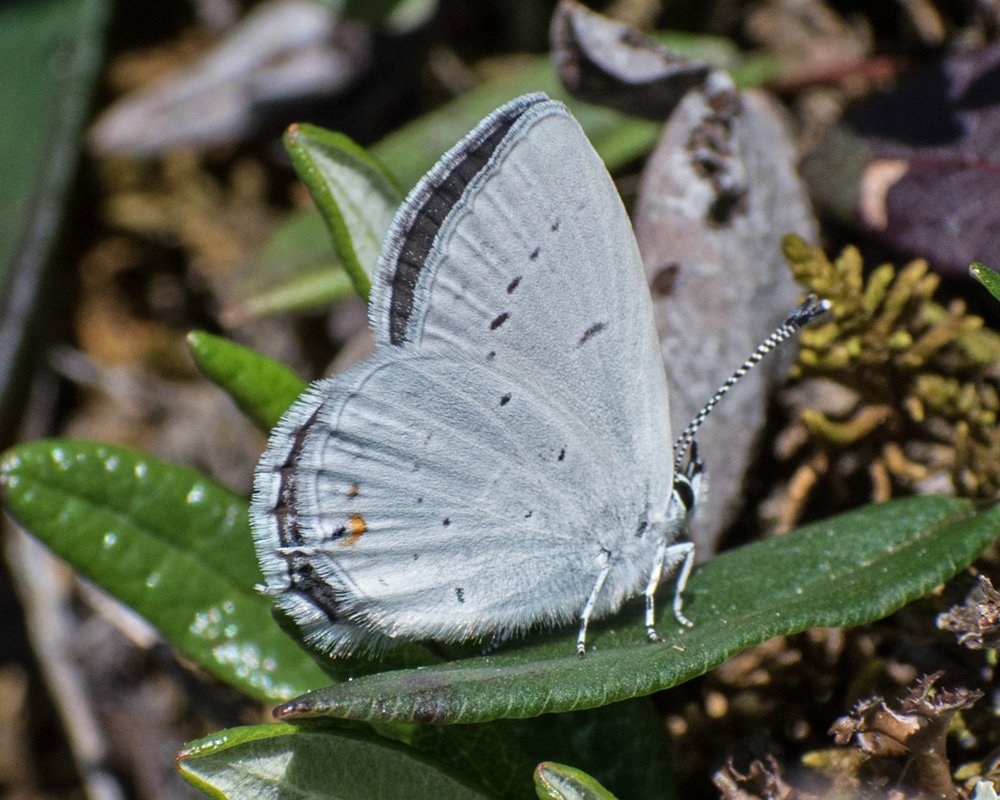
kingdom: Animalia
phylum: Arthropoda
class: Insecta
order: Lepidoptera
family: Lycaenidae
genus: Elkalyce
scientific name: Elkalyce amyntula
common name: Western Tailed-Blue
